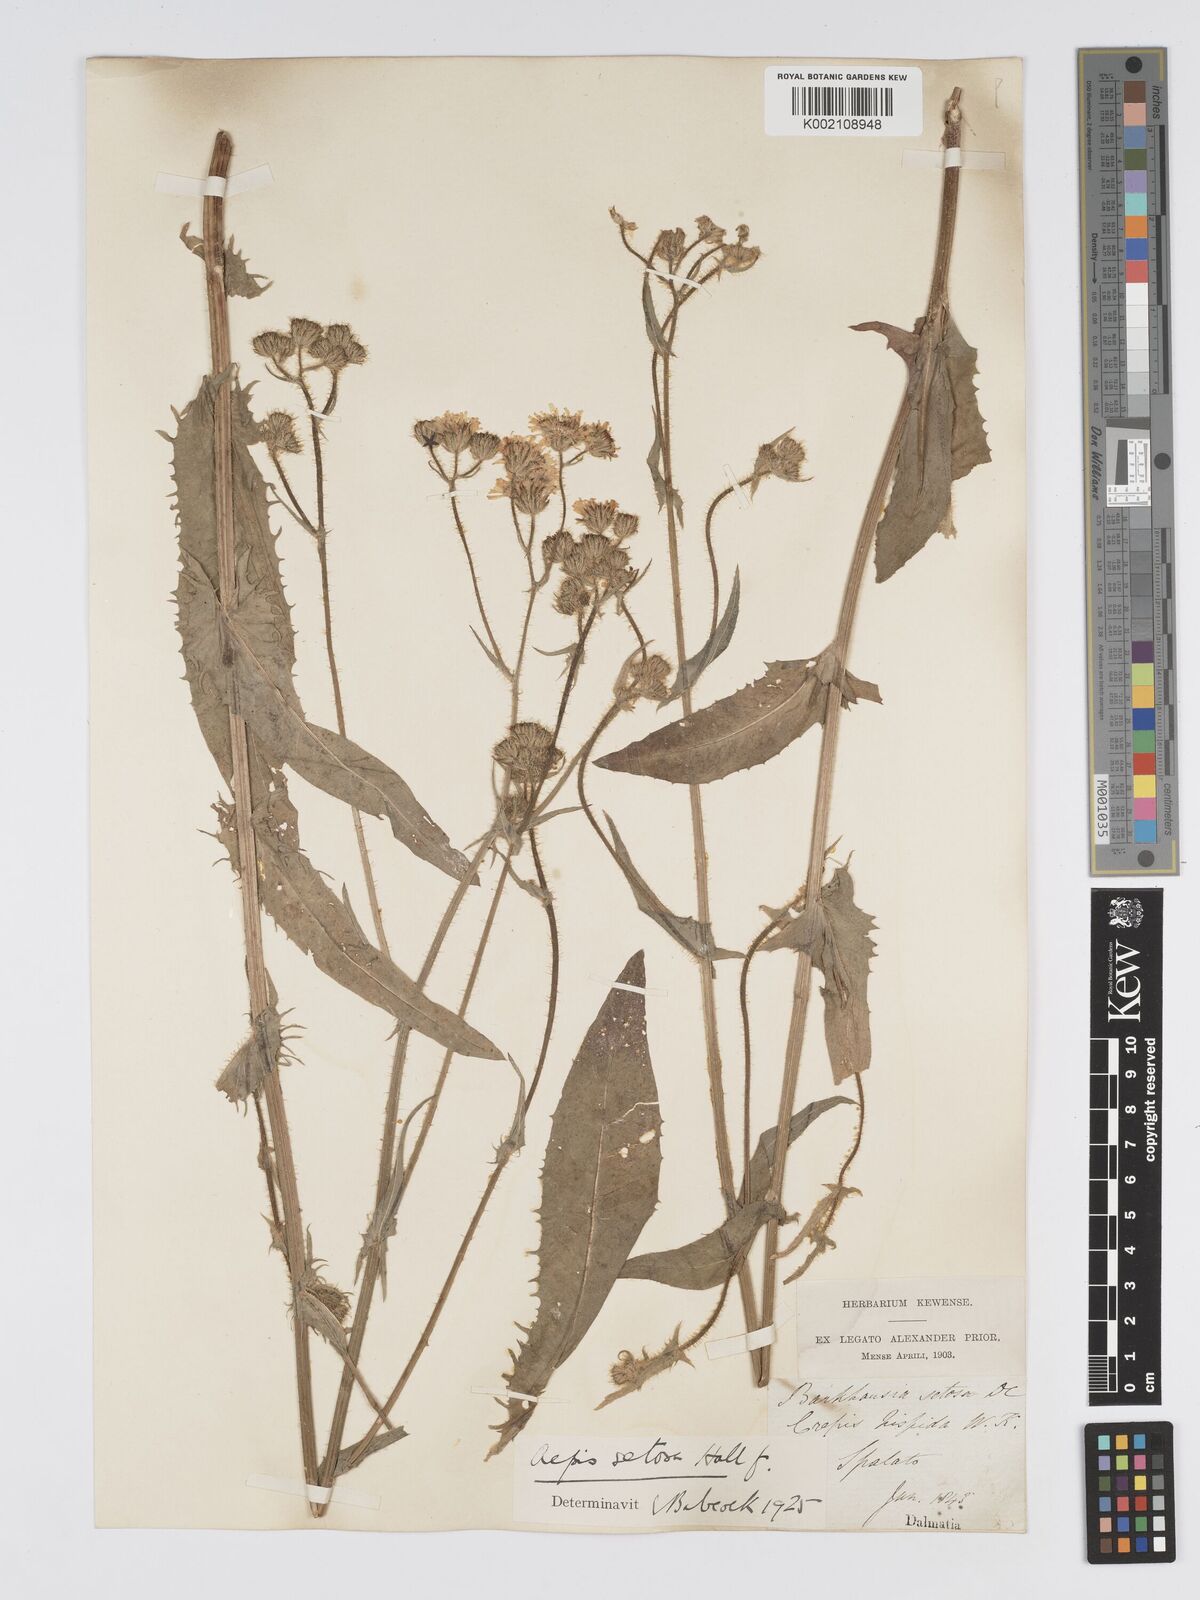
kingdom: Plantae
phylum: Tracheophyta
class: Magnoliopsida
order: Asterales
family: Asteraceae
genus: Crepis
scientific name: Crepis setosa
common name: Bristly hawk's-beard
